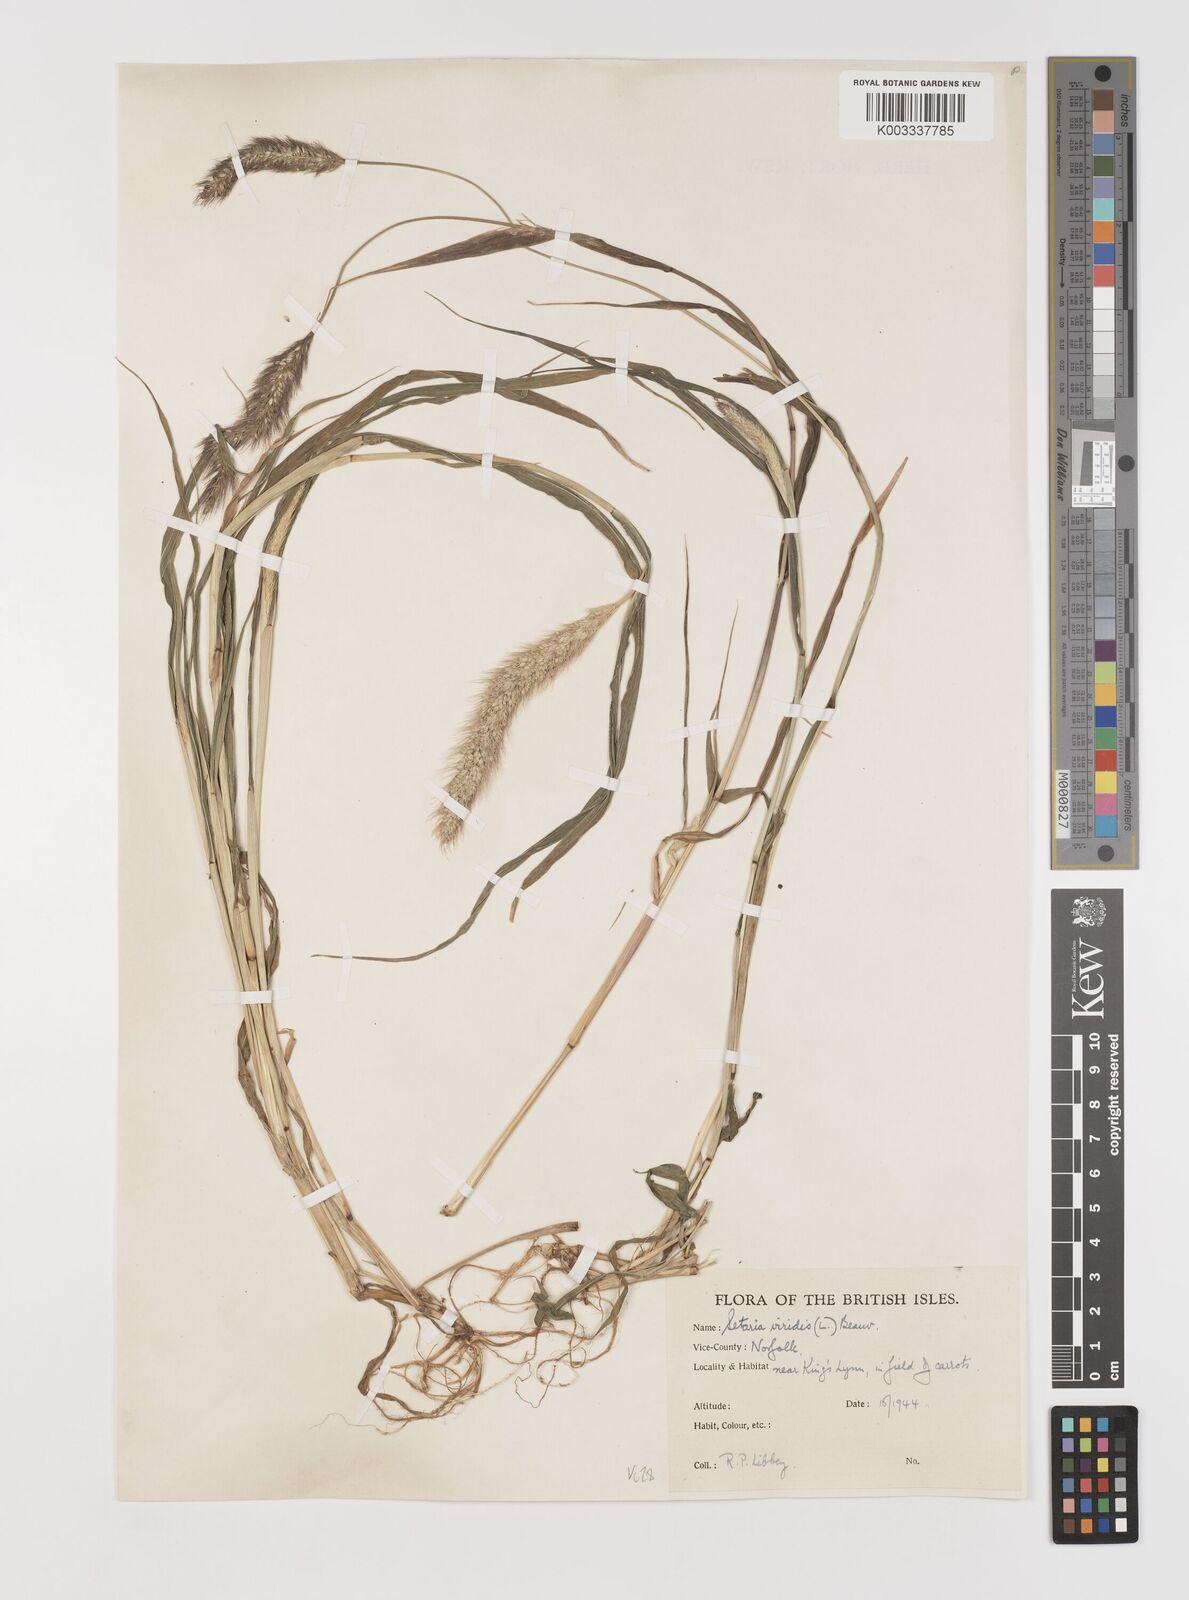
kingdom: Plantae
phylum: Tracheophyta
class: Liliopsida
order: Poales
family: Poaceae
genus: Setaria
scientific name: Setaria viridis
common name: Green bristlegrass
